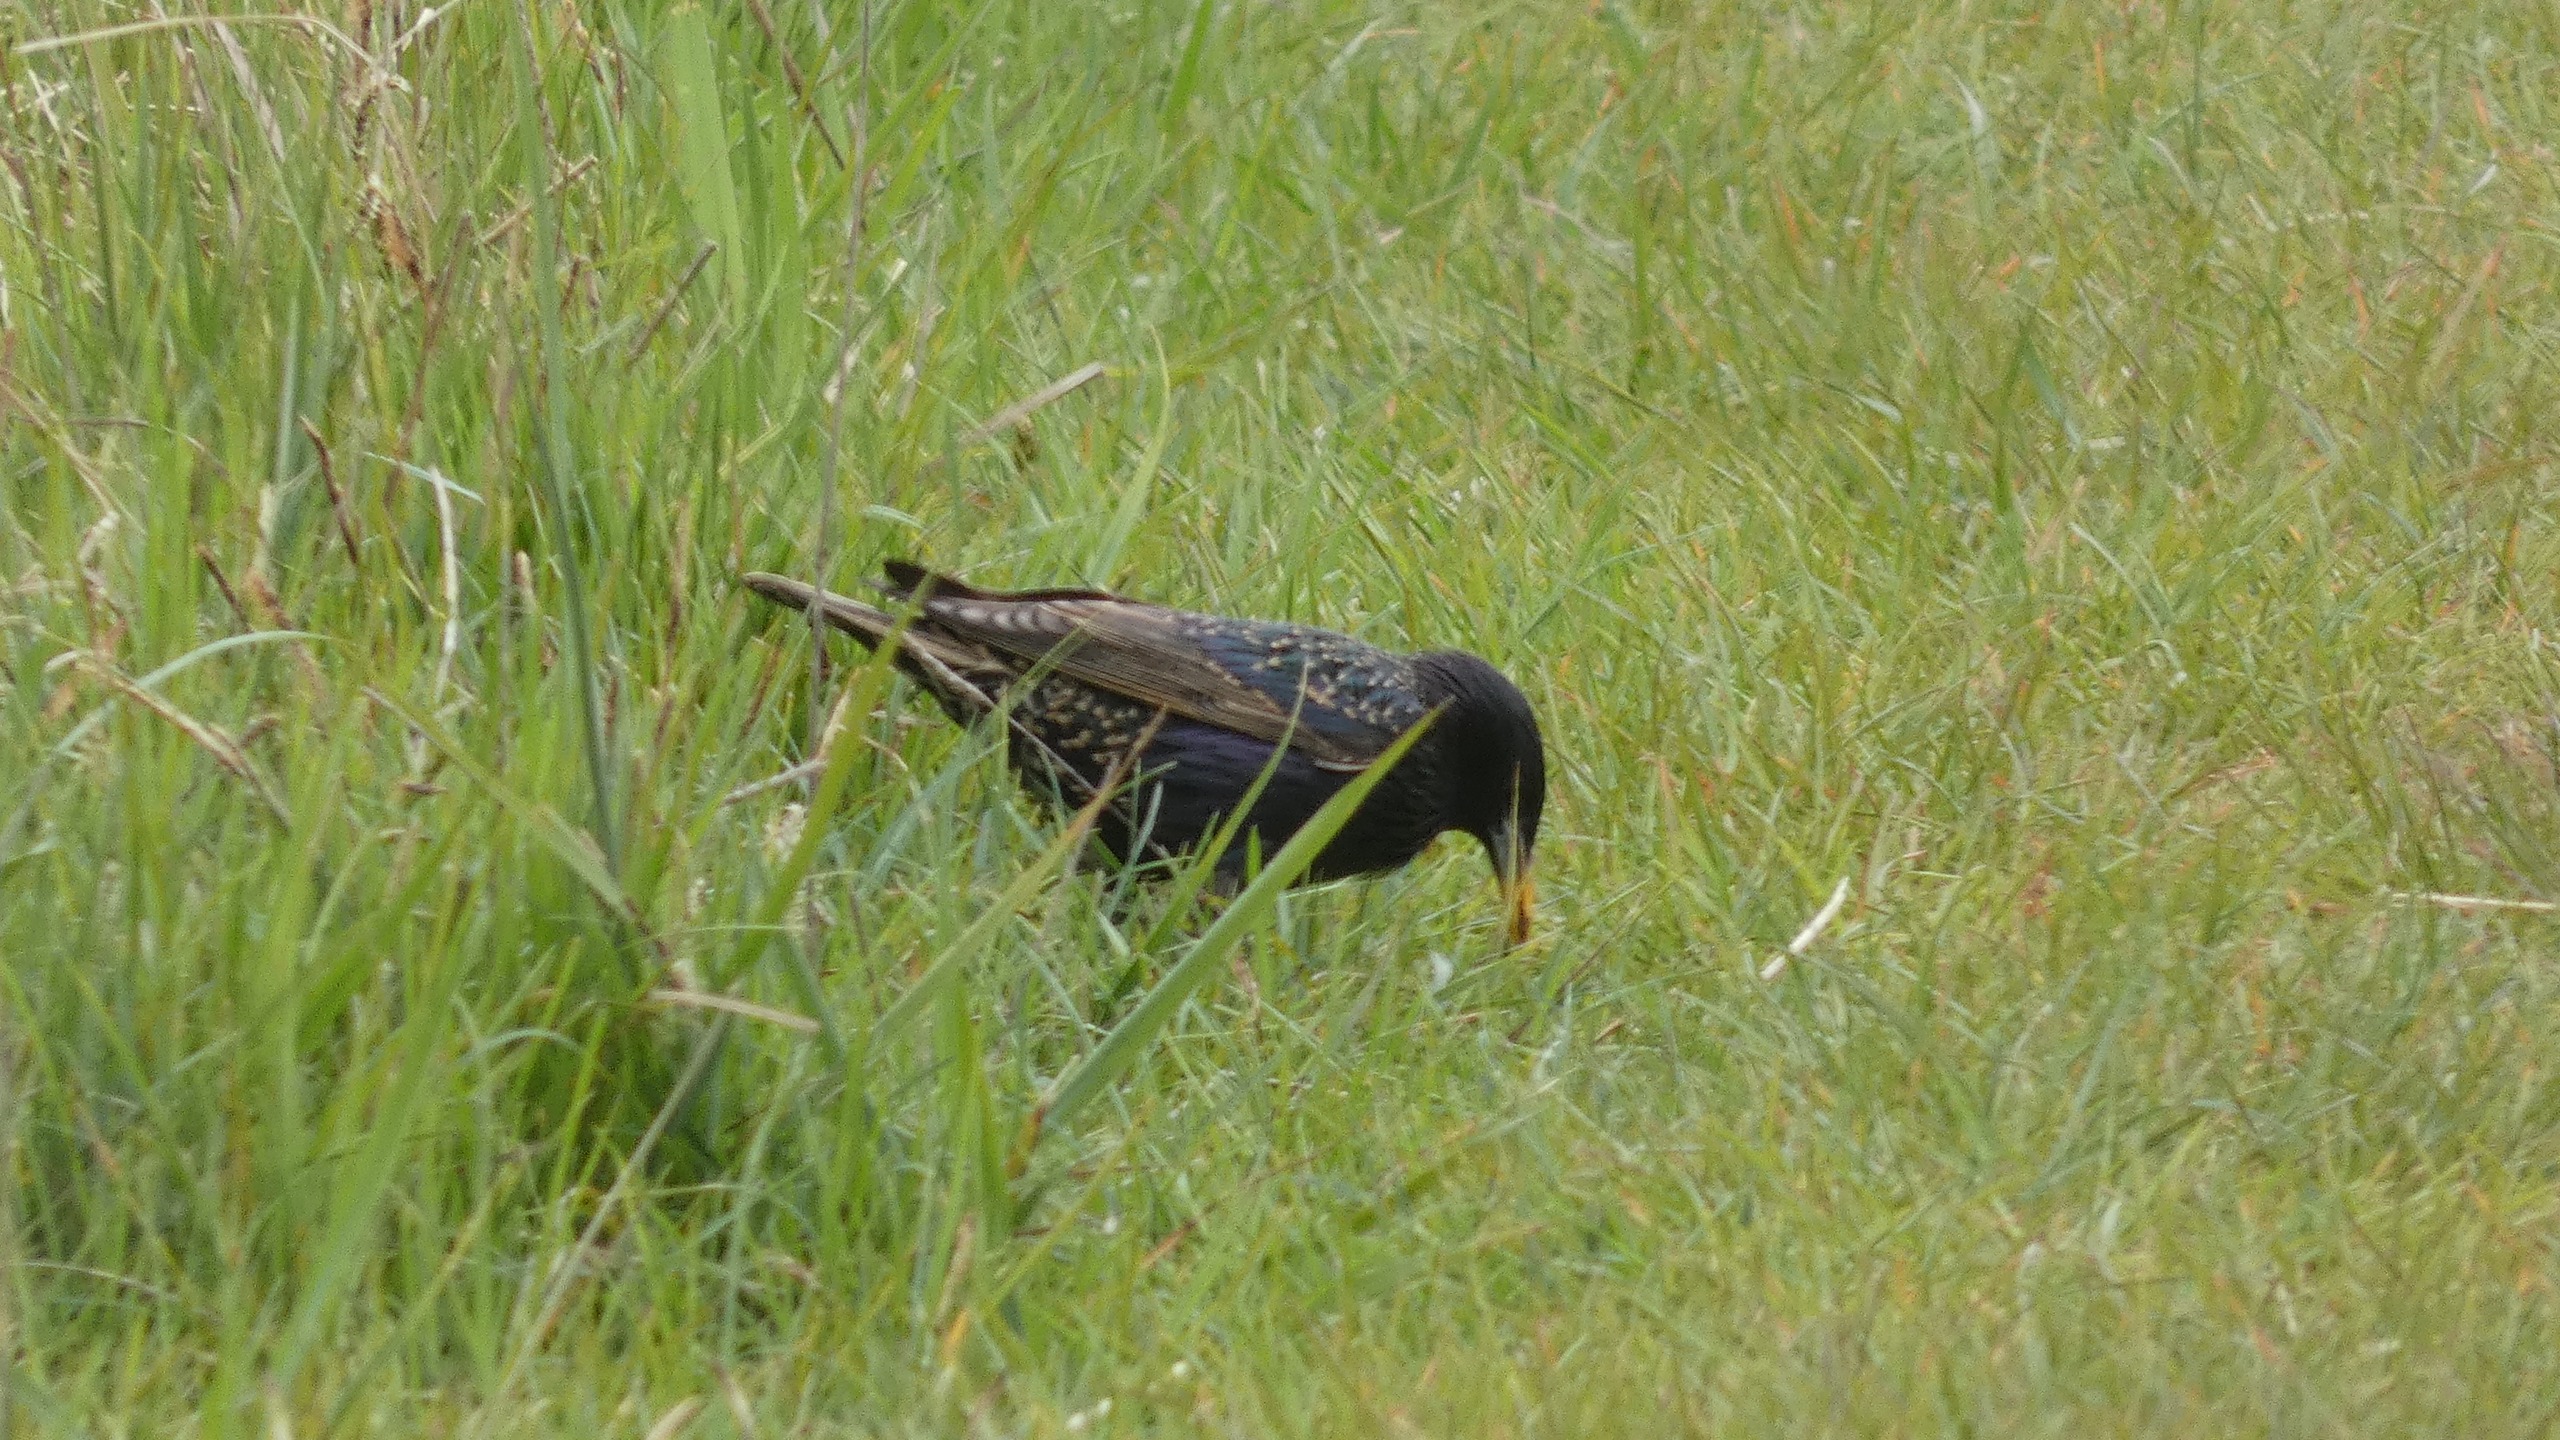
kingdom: Animalia
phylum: Chordata
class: Aves
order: Passeriformes
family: Sturnidae
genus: Sturnus
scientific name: Sturnus vulgaris
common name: Stær
